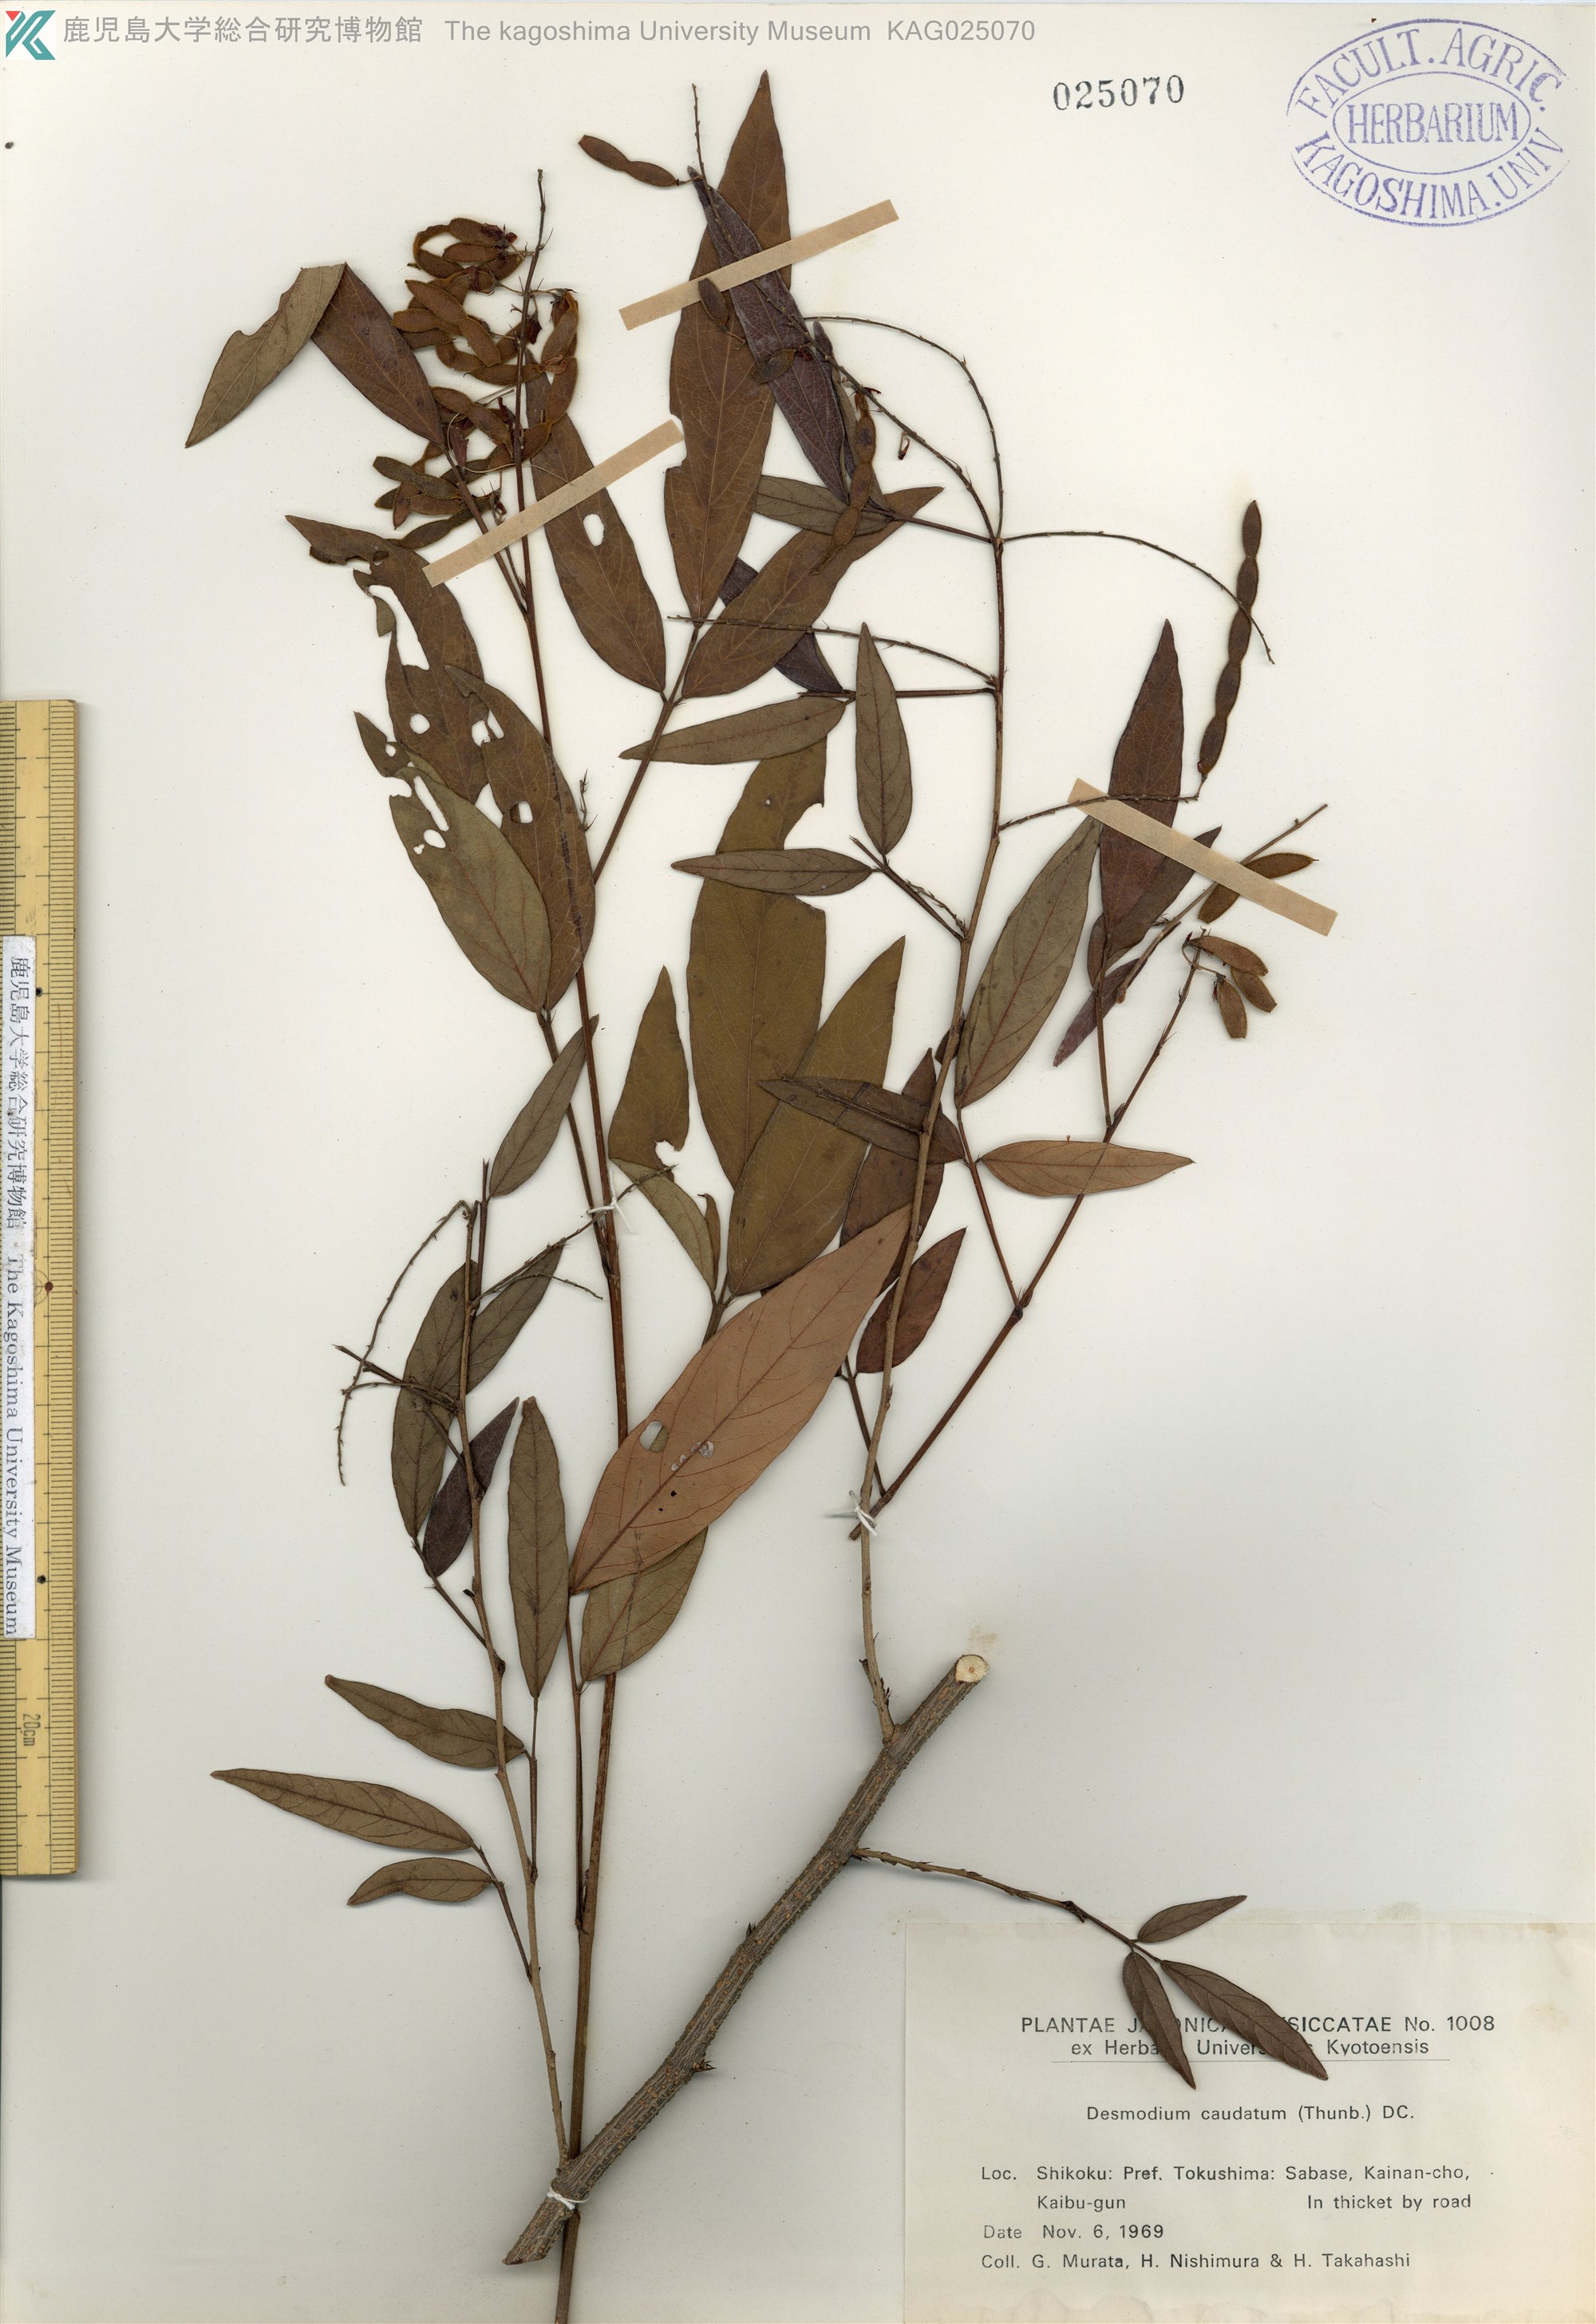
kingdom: Plantae
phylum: Tracheophyta
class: Magnoliopsida
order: Fabales
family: Fabaceae
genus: Ohwia
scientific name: Ohwia caudata
